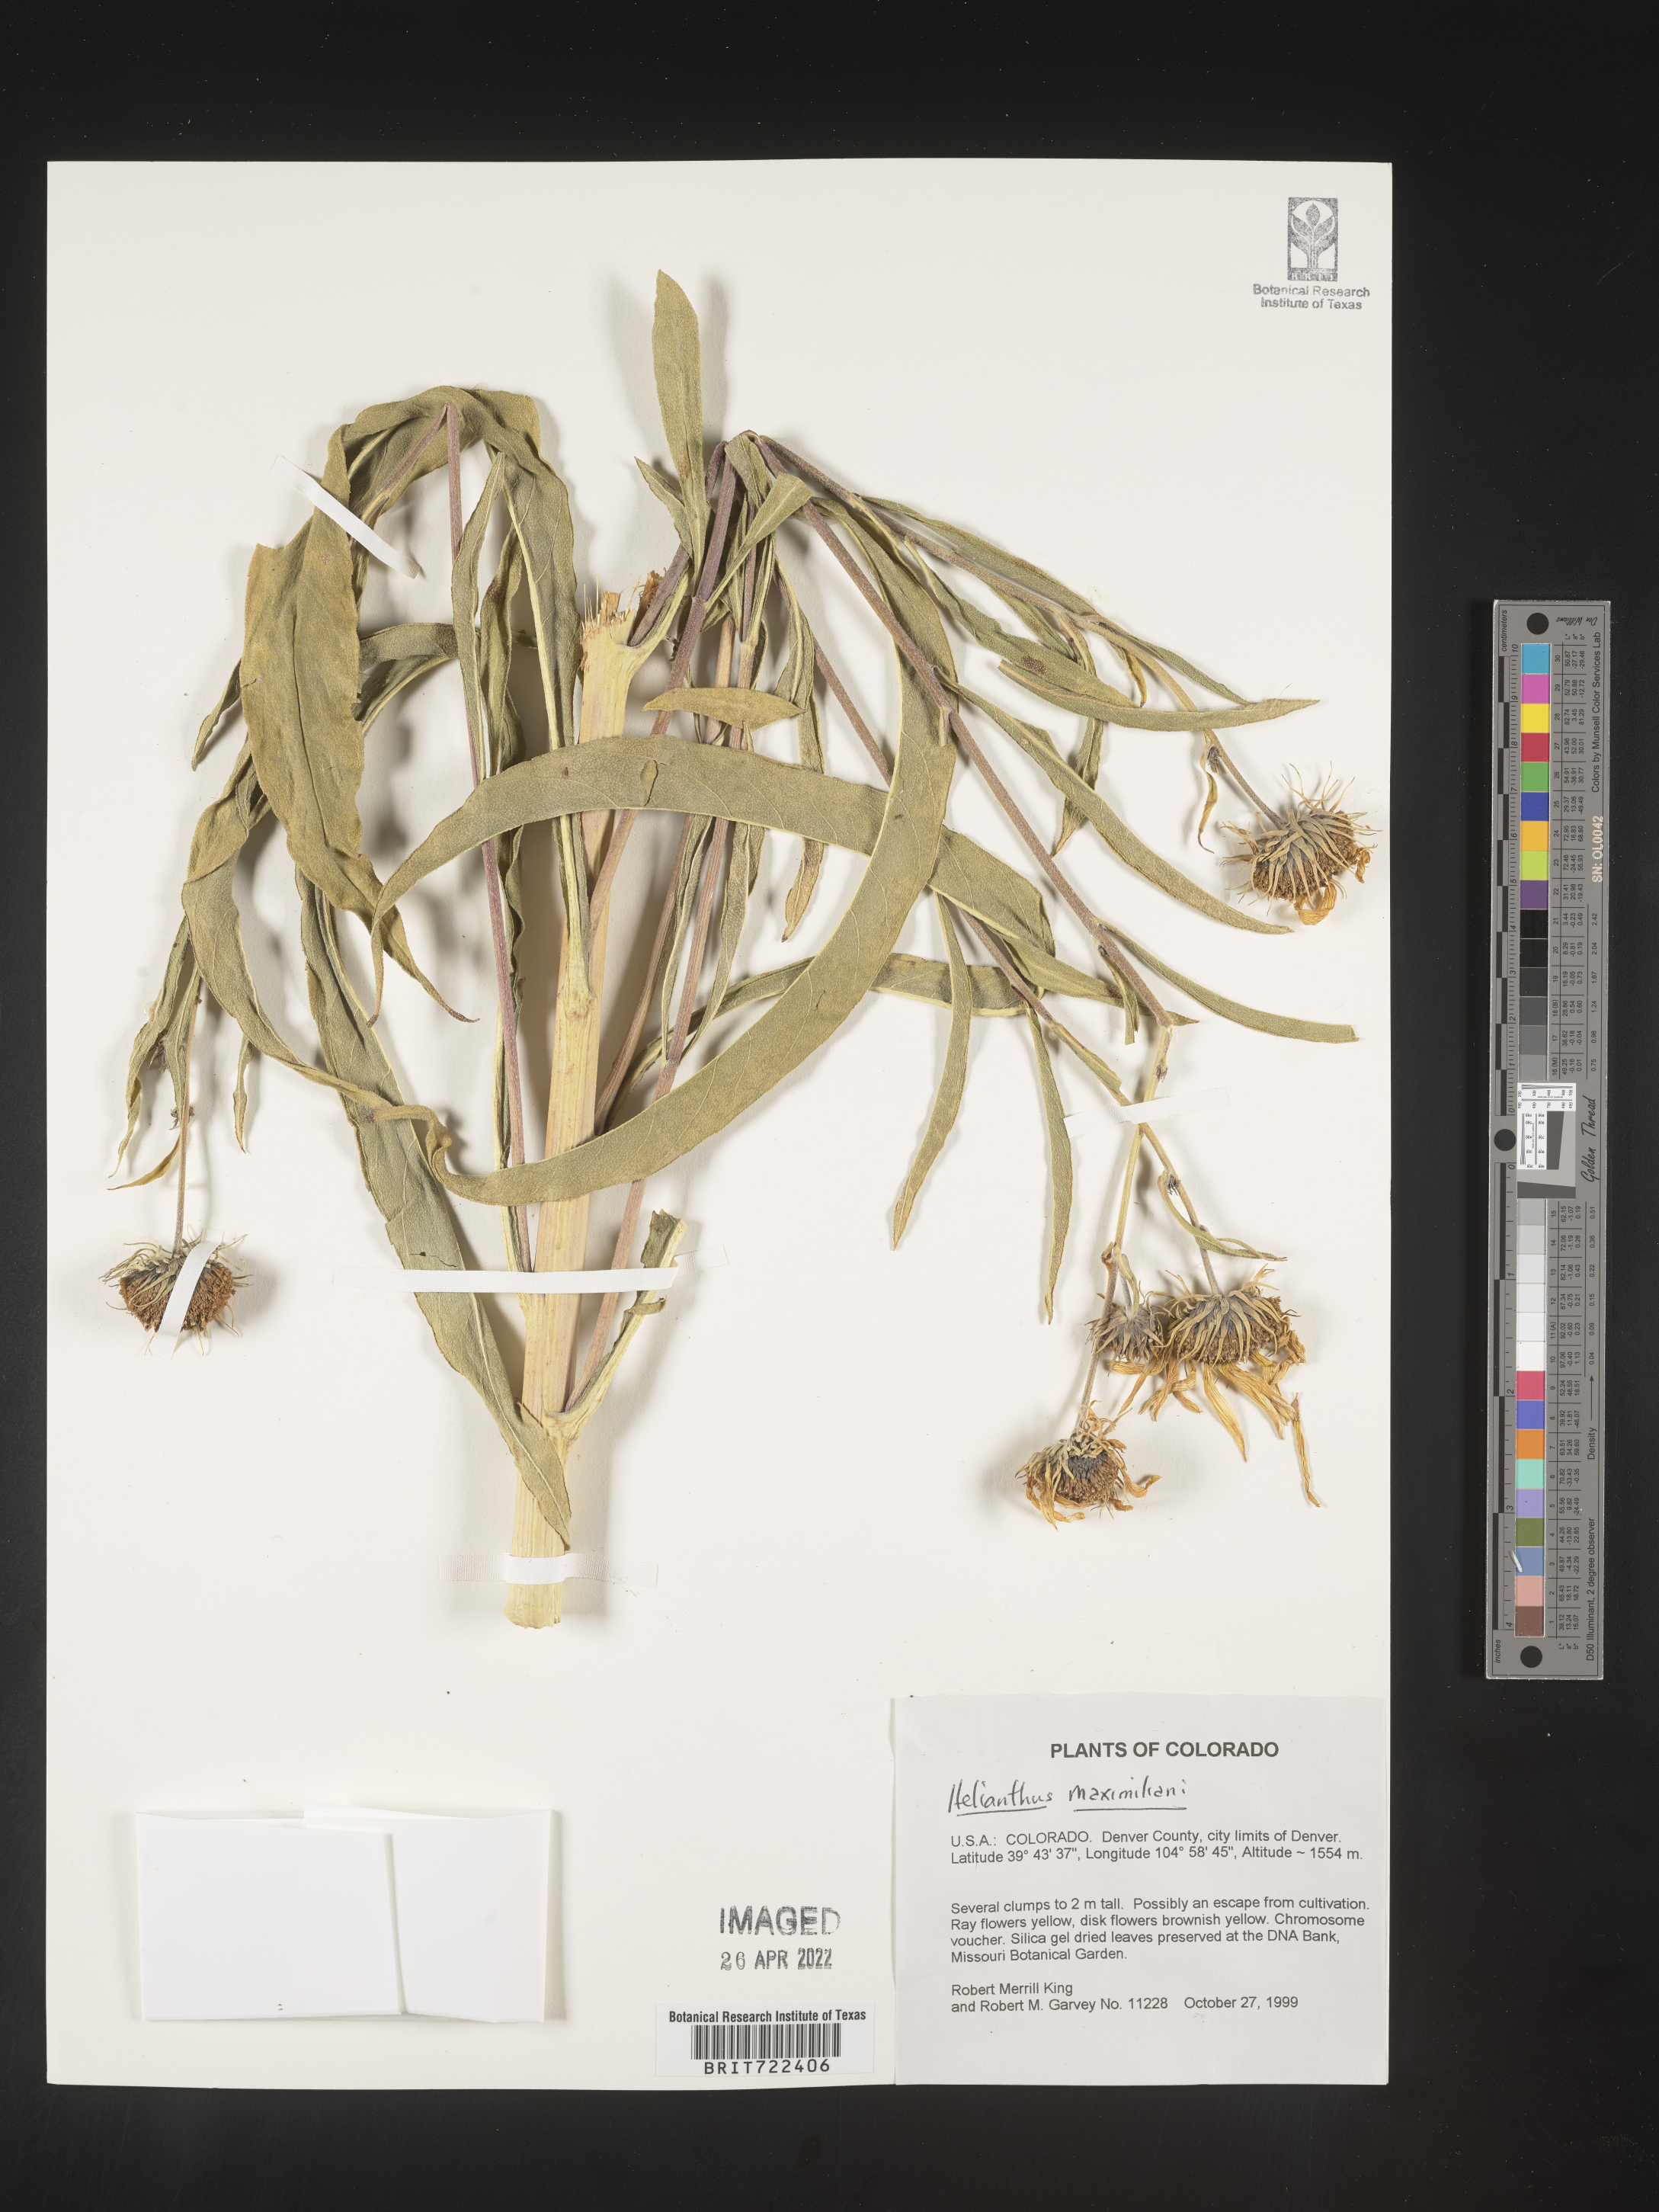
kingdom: Plantae
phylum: Tracheophyta
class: Magnoliopsida
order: Asterales
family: Asteraceae
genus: Helianthus
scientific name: Helianthus maximiliani
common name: Maximilian's sunflower
